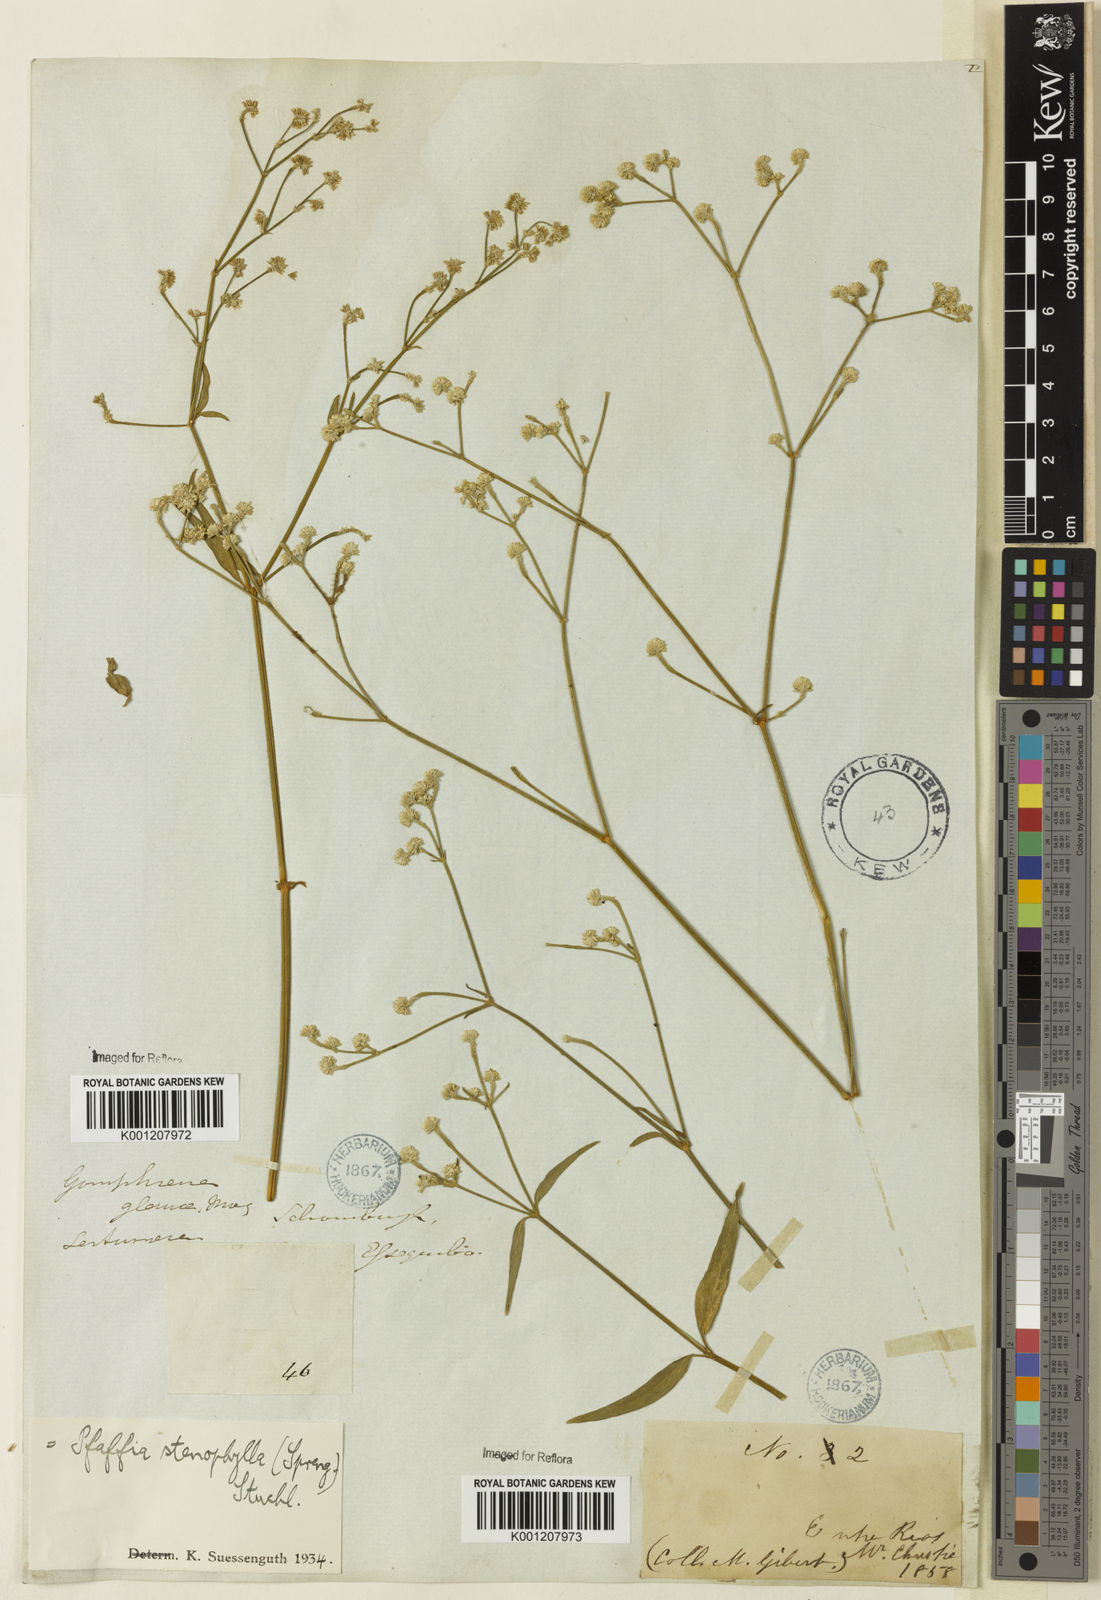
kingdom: Plantae
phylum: Tracheophyta
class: Magnoliopsida
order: Caryophyllales
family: Amaranthaceae
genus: Pfaffia
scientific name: Pfaffia
